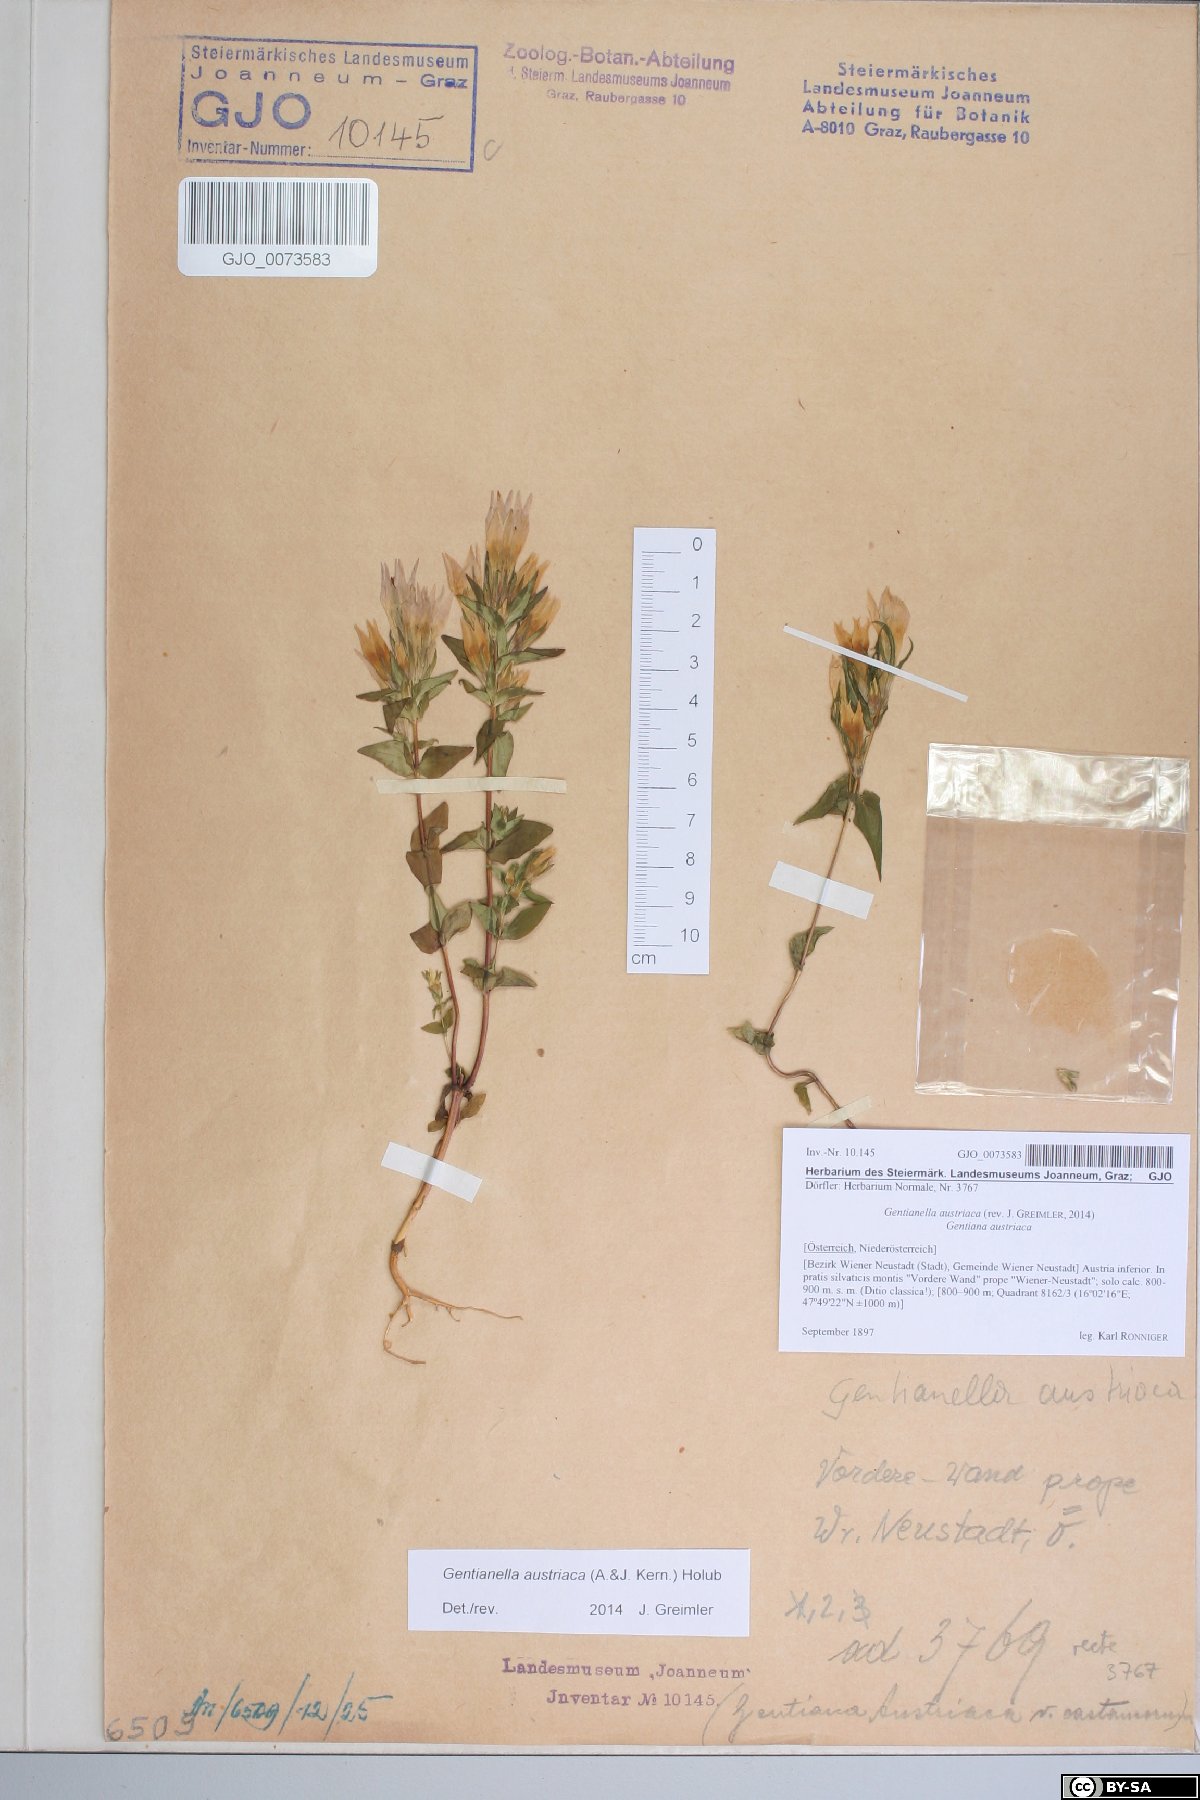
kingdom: Plantae
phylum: Tracheophyta
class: Magnoliopsida
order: Gentianales
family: Gentianaceae
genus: Gentianella
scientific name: Gentianella austriaca
